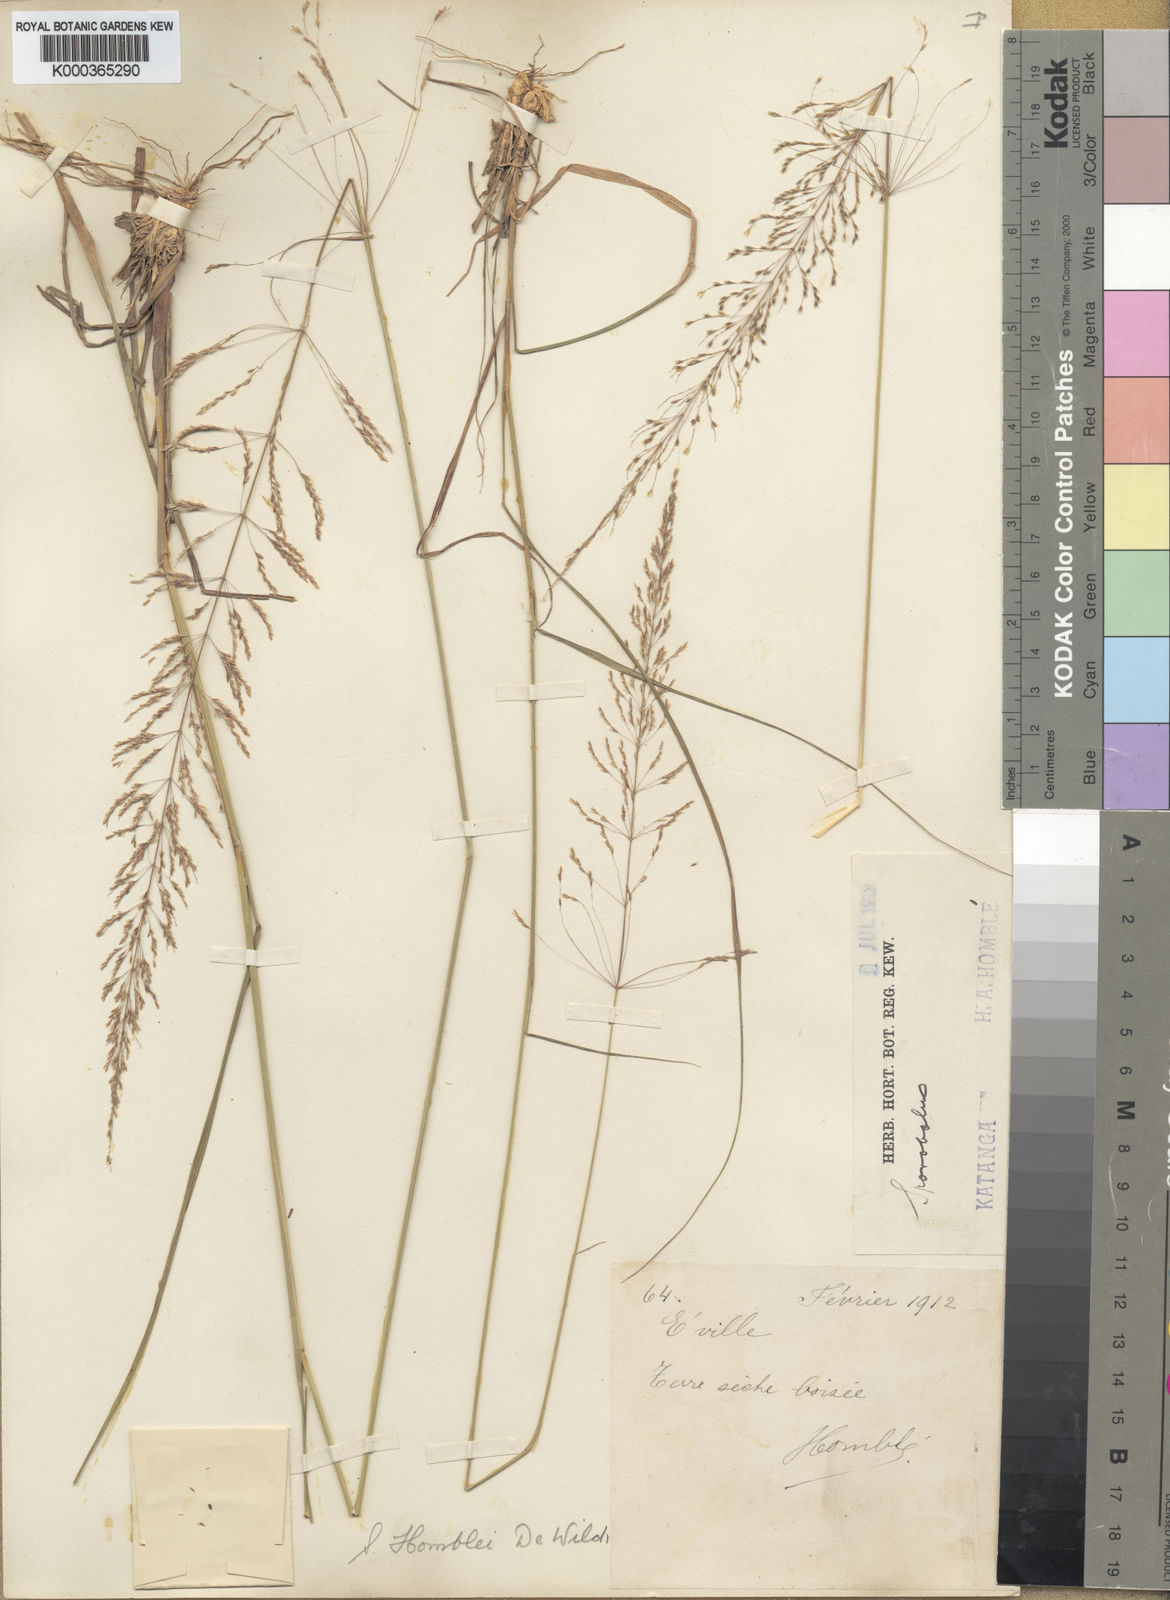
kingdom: Plantae
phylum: Tracheophyta
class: Liliopsida
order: Poales
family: Poaceae
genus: Sporobolus
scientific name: Sporobolus sanguineus
